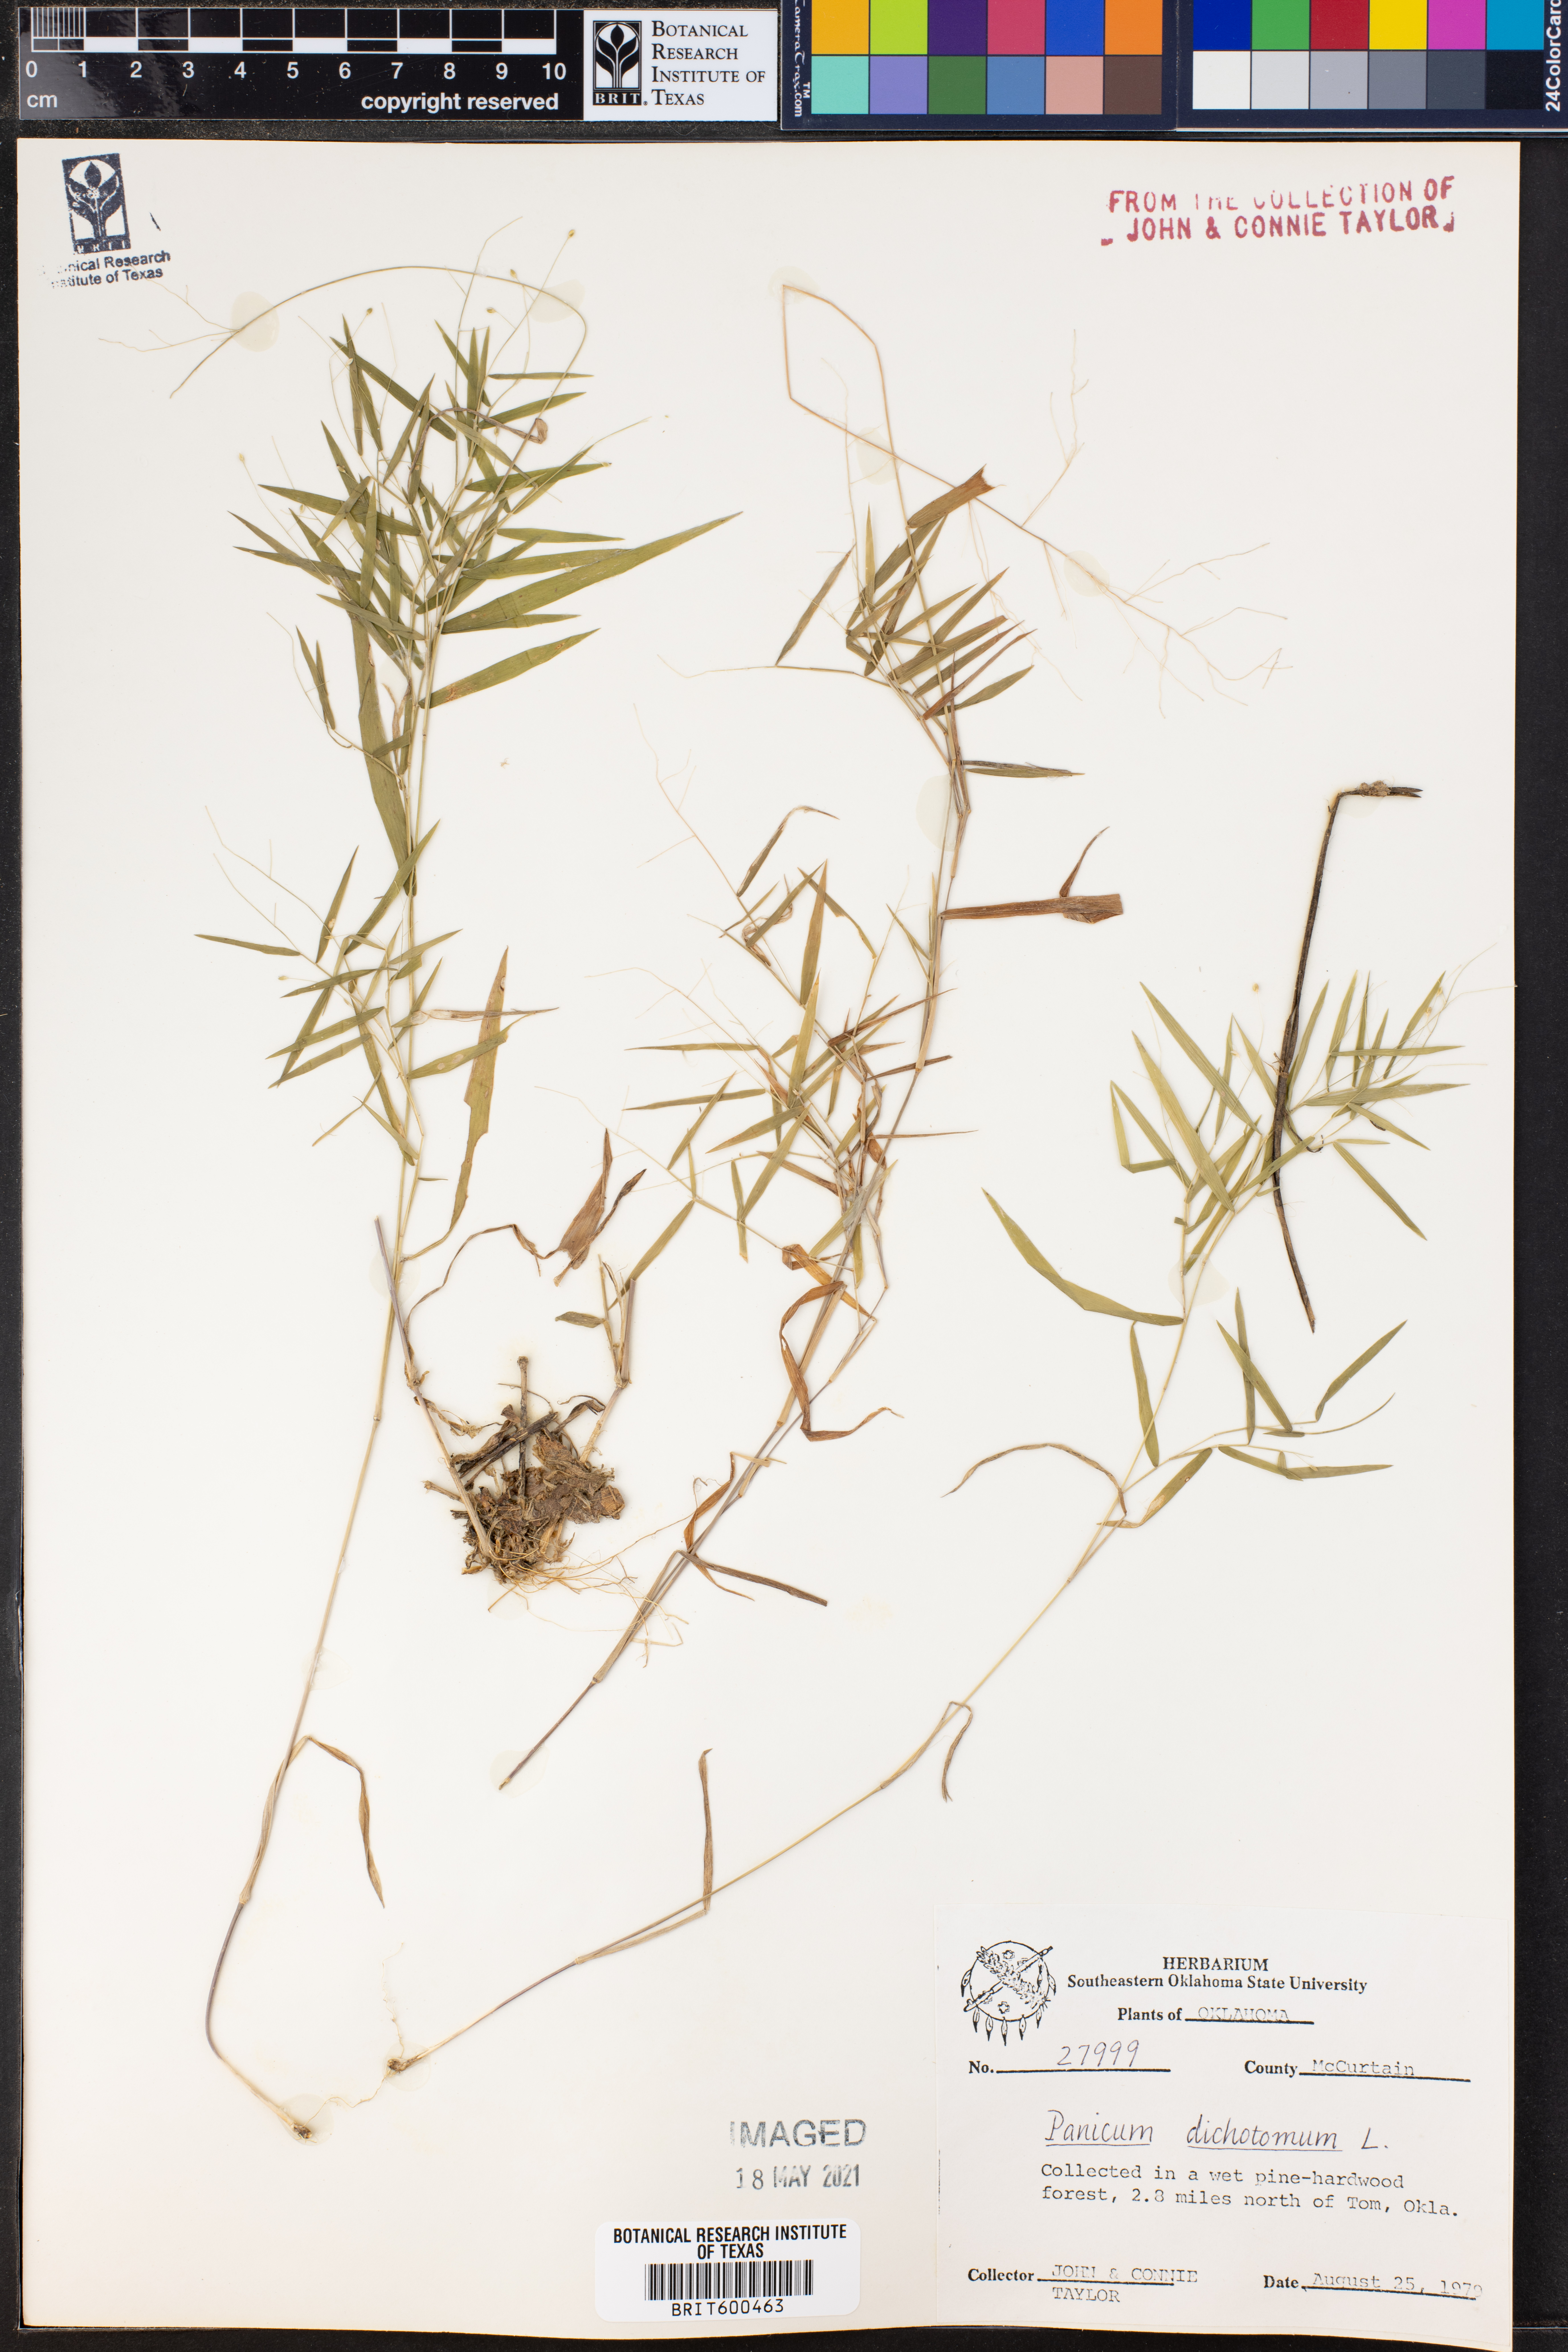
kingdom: Plantae
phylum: Tracheophyta
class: Liliopsida
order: Poales
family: Poaceae
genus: Dichanthelium
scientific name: Dichanthelium dichotomum
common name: Cypress panicgrass
